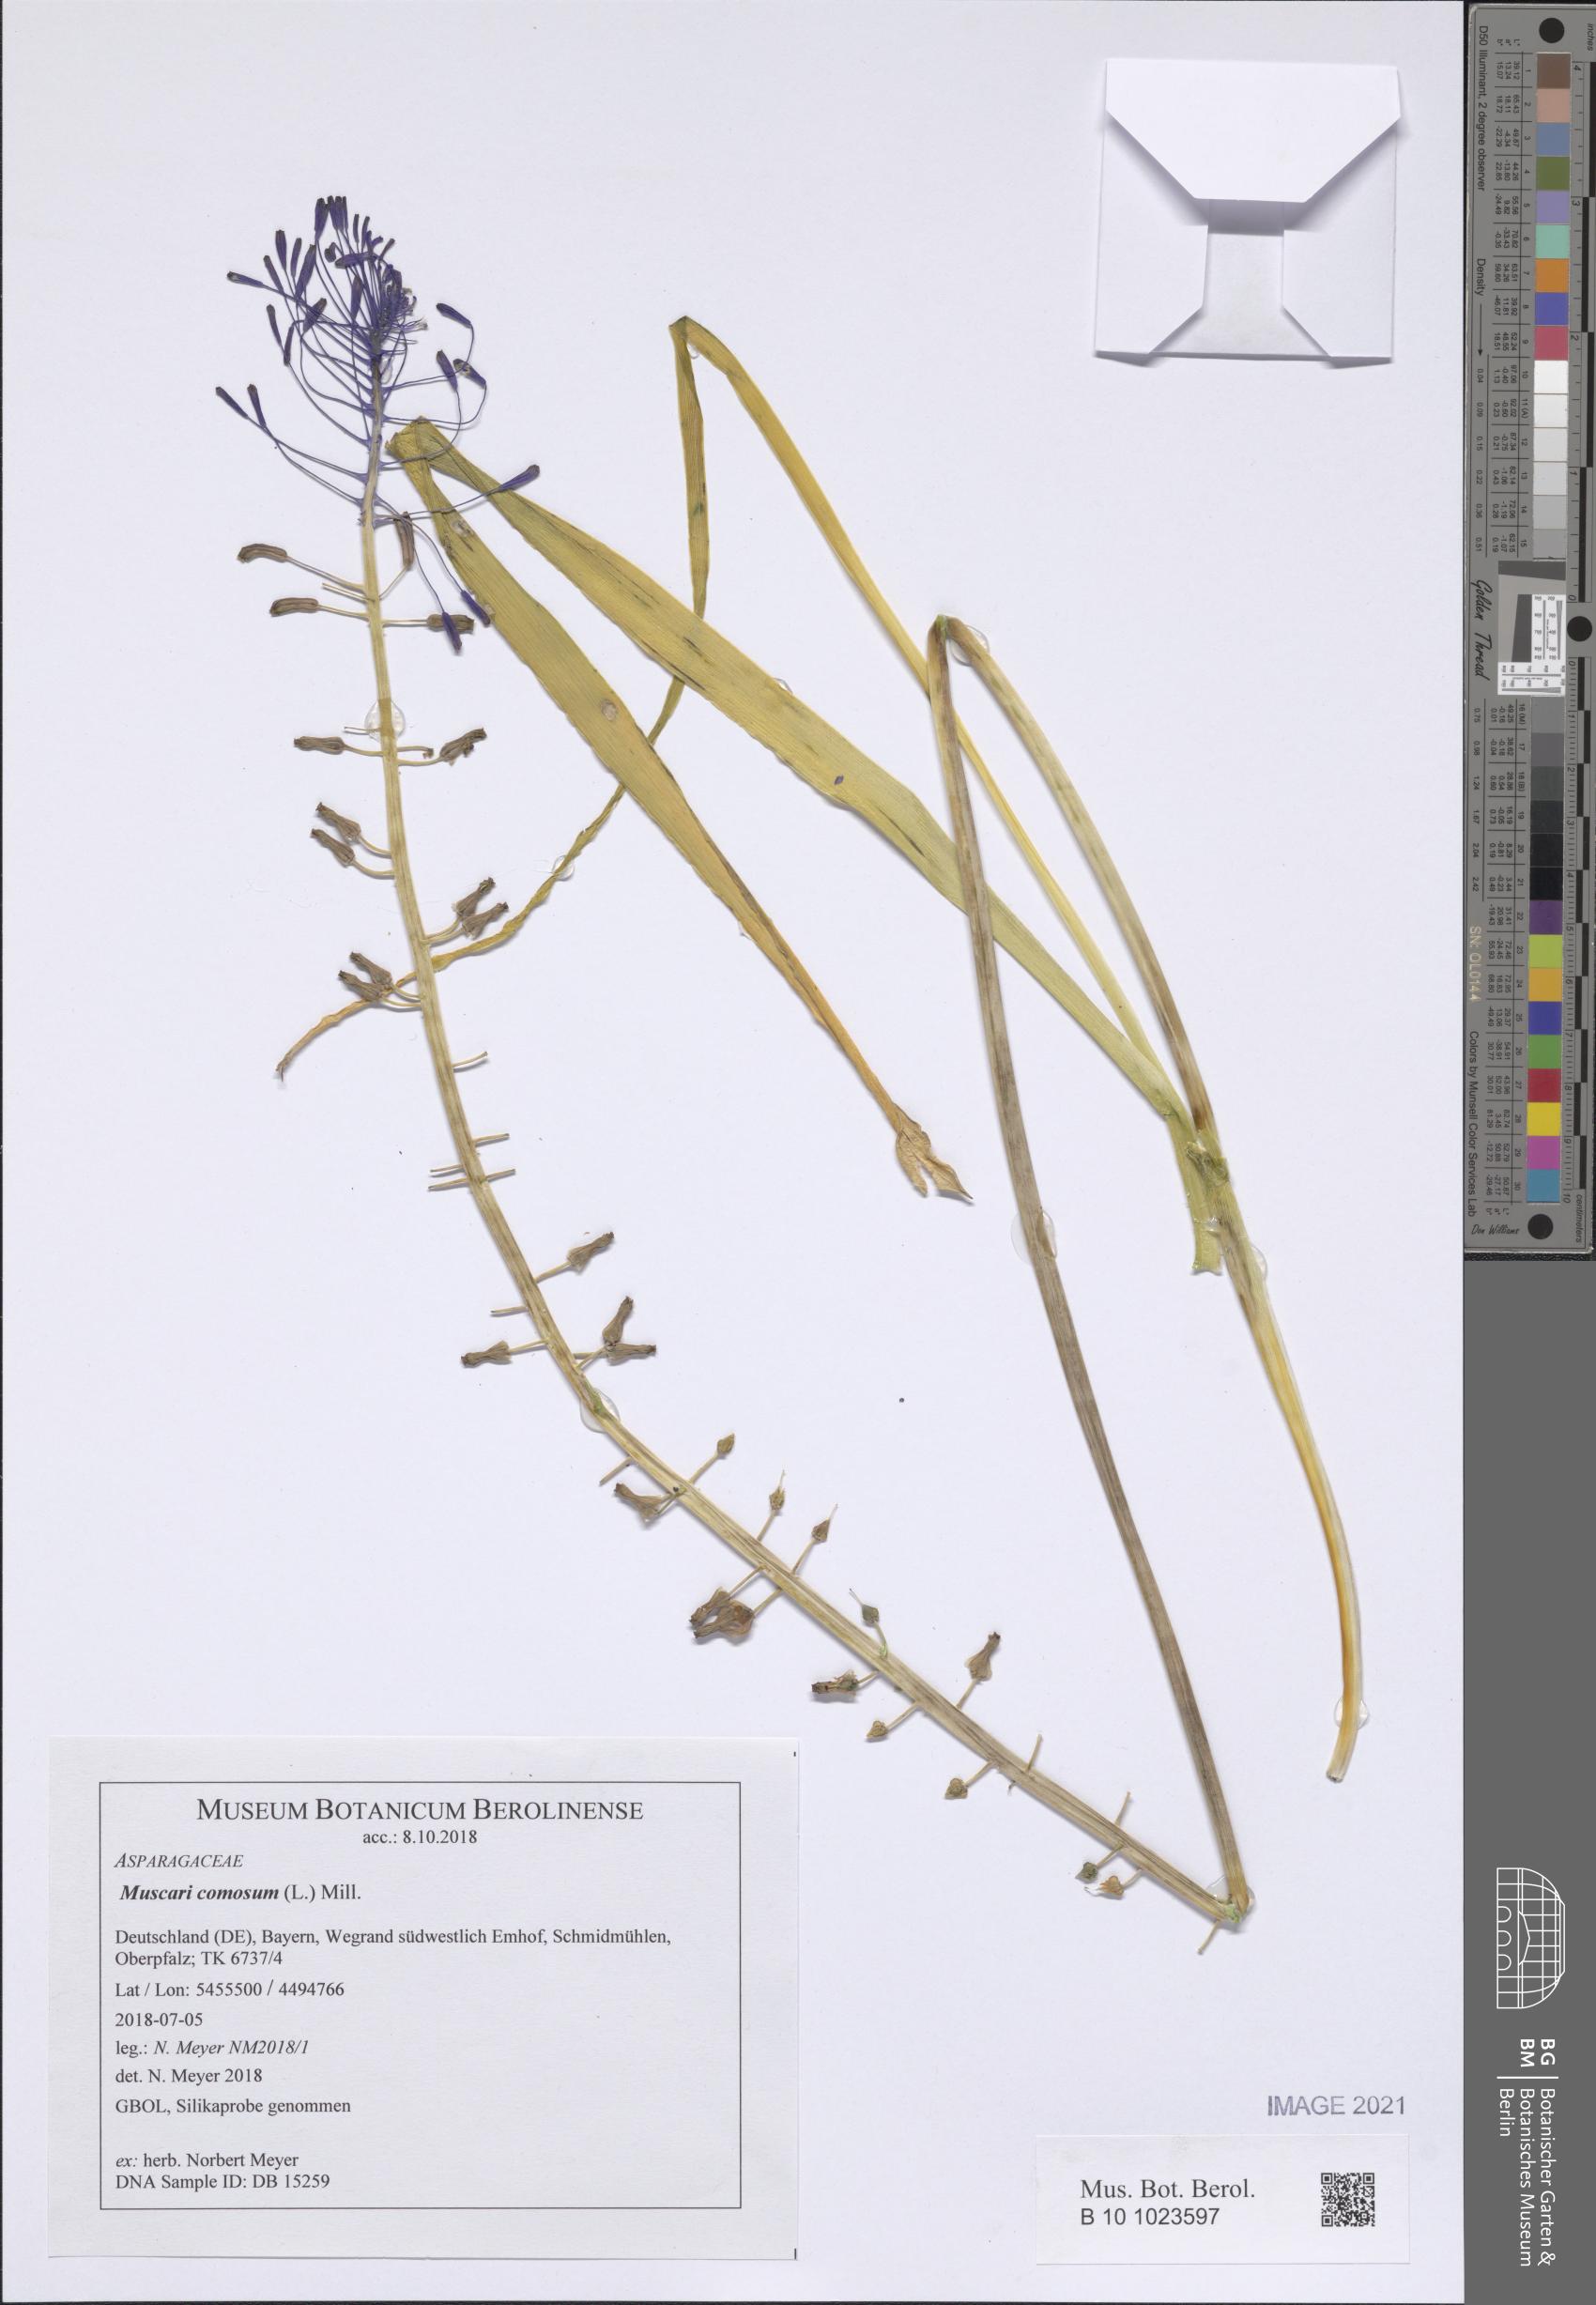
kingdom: Plantae
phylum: Tracheophyta
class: Liliopsida
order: Asparagales
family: Asparagaceae
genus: Muscari
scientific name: Muscari comosum
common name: Tassel hyacinth
